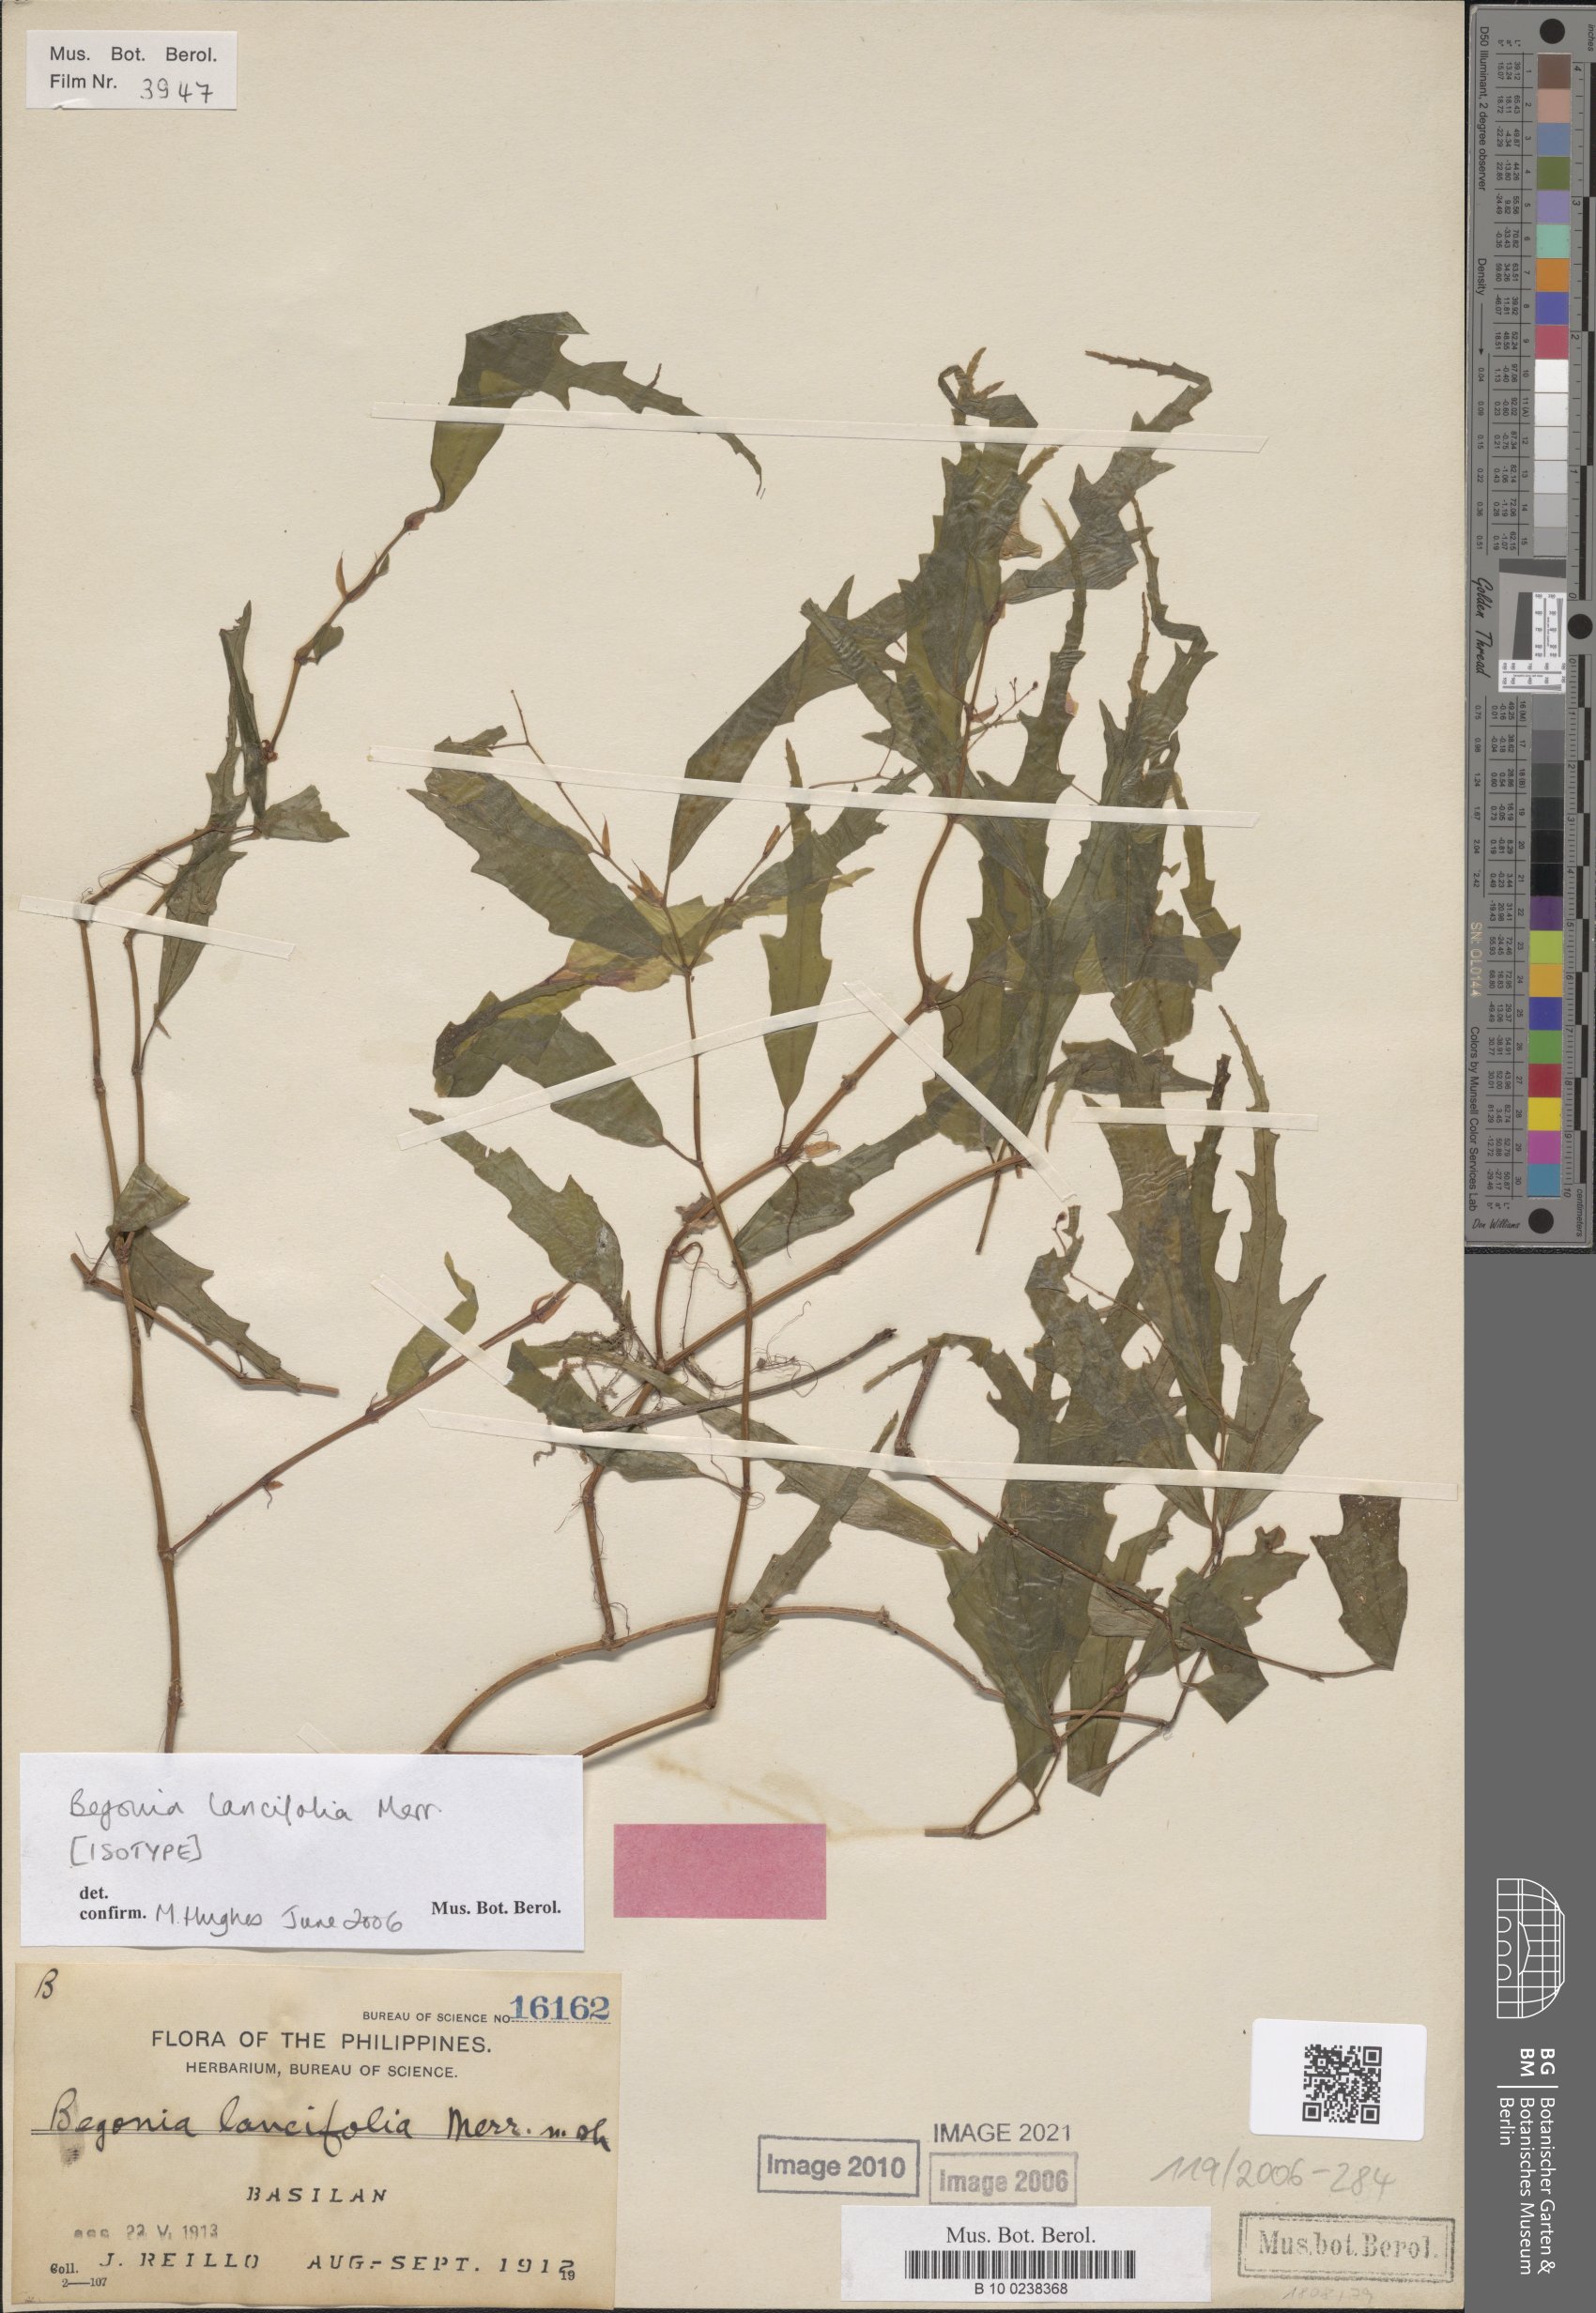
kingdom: Plantae
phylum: Tracheophyta
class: Magnoliopsida
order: Cucurbitales
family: Begoniaceae
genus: Begonia
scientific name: Begonia lancifolia
